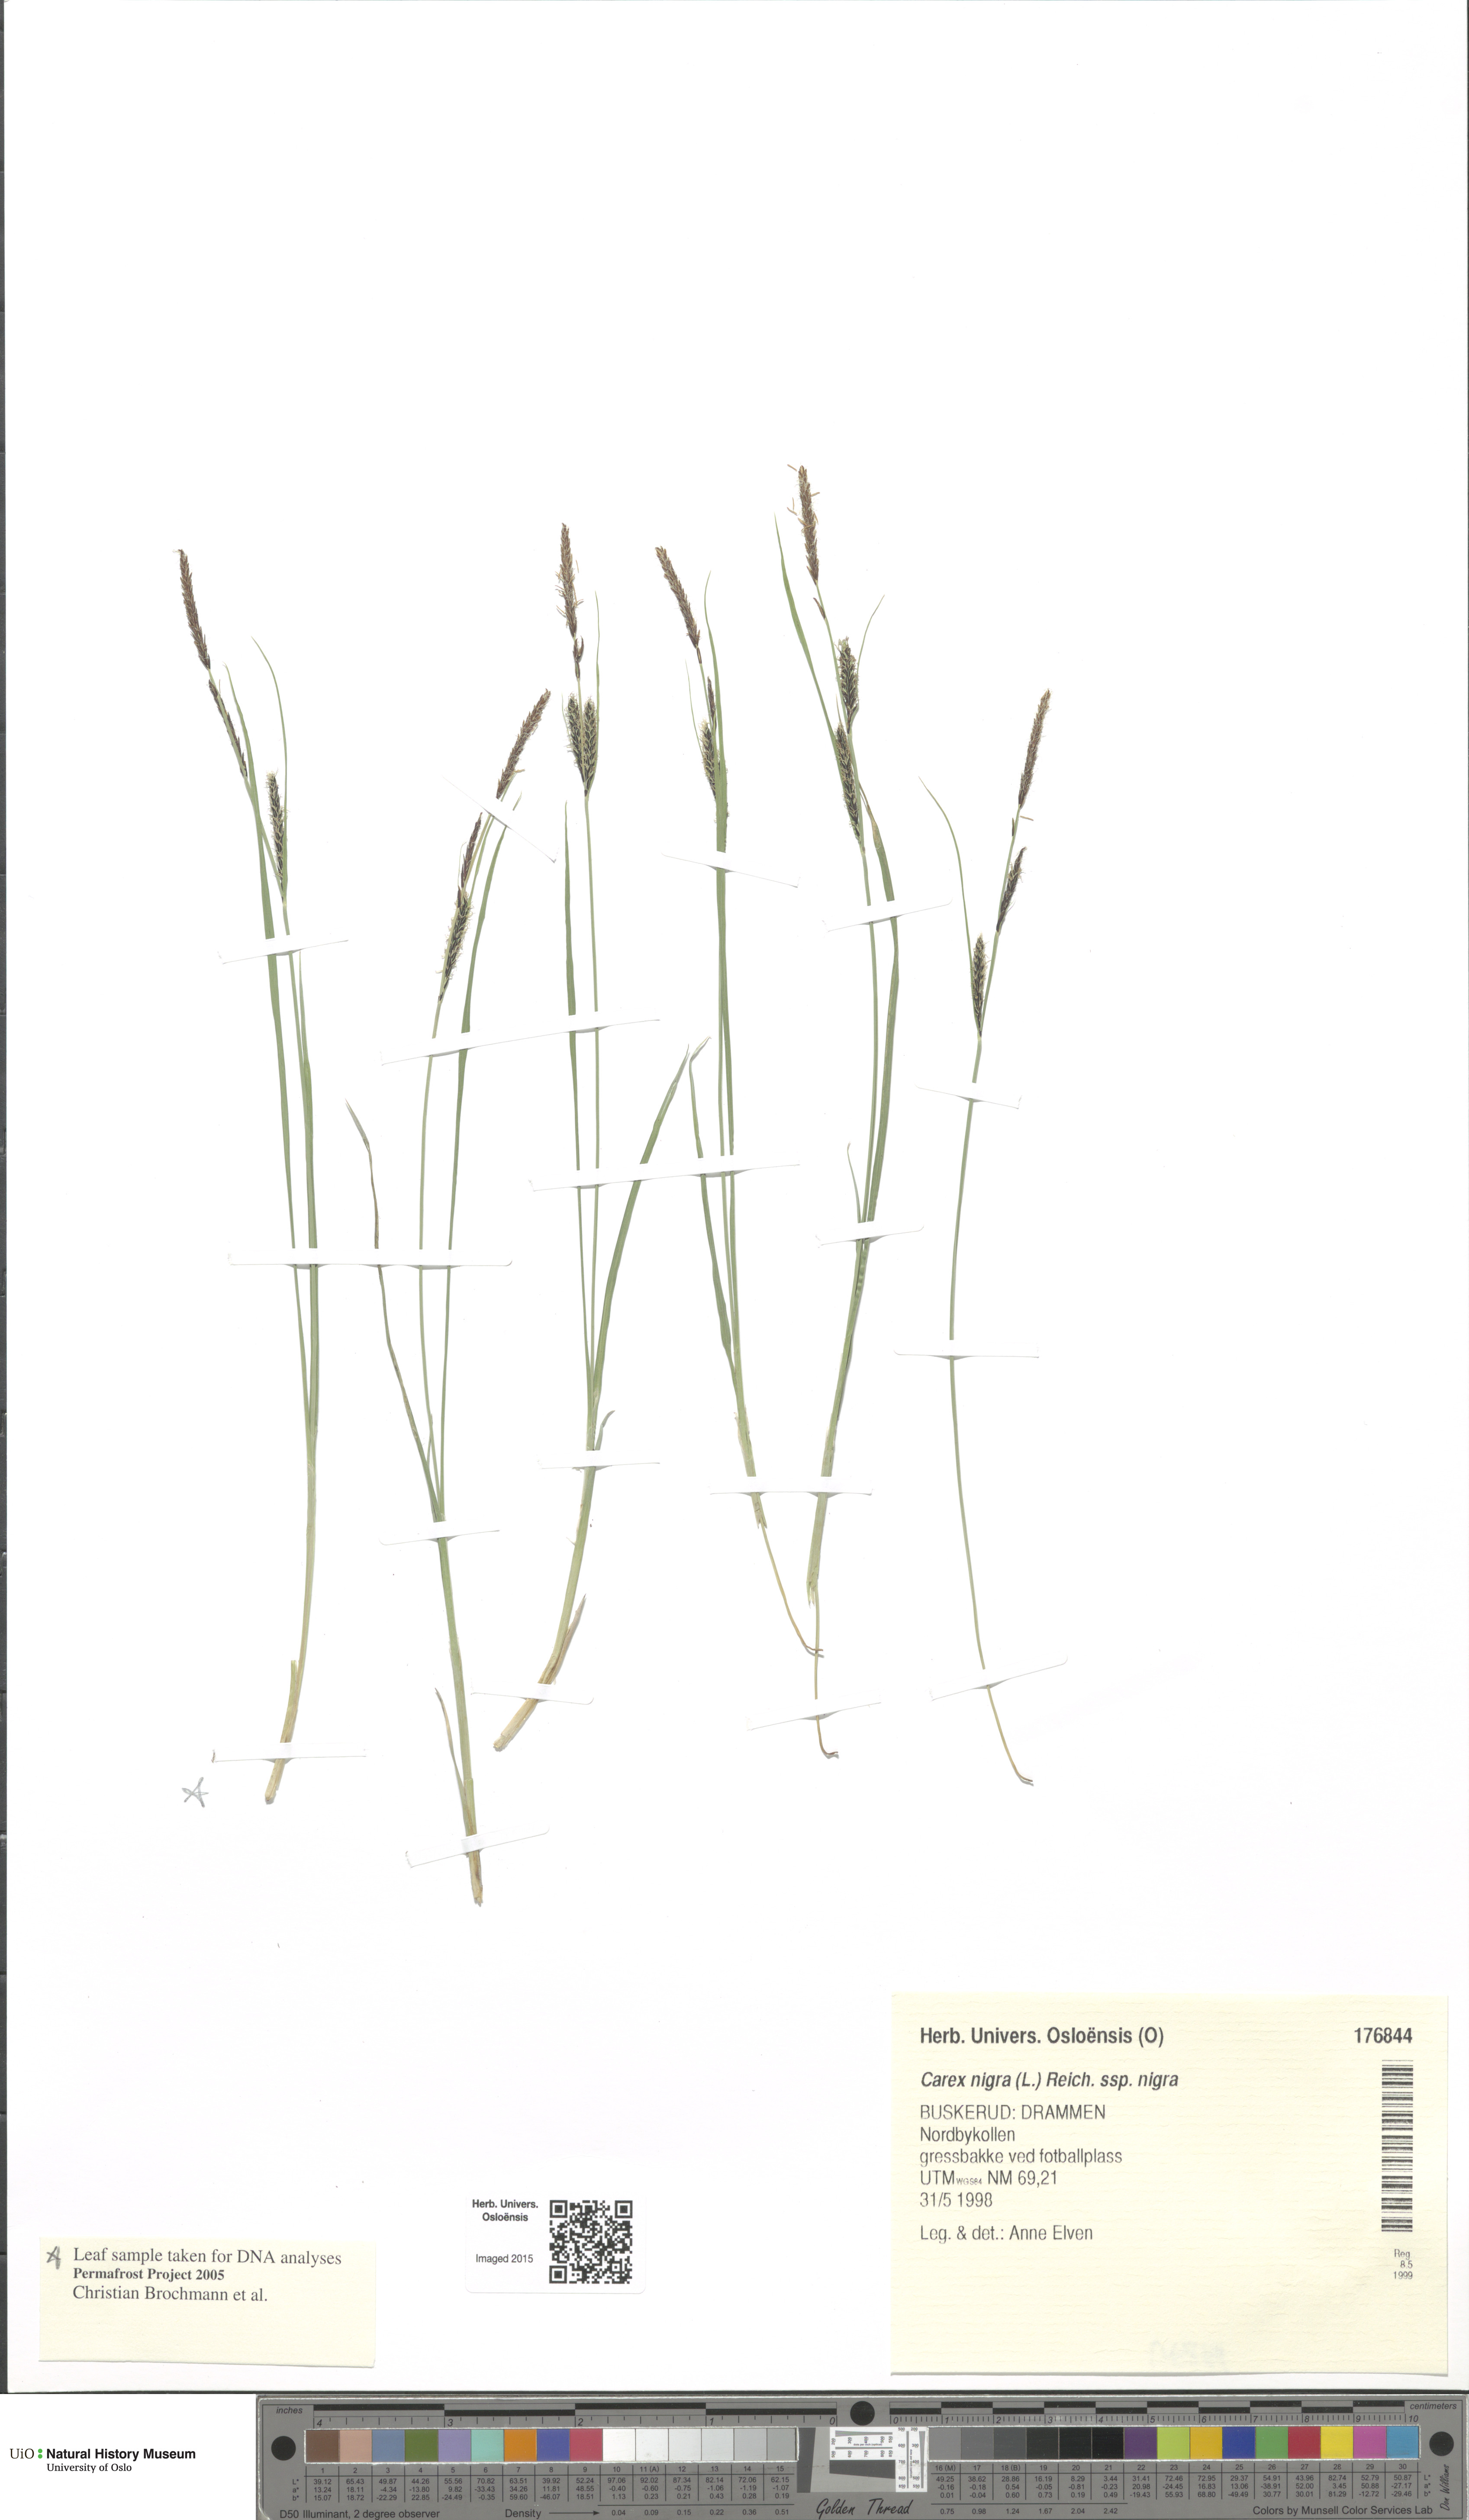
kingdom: Plantae
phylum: Tracheophyta
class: Liliopsida
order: Poales
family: Cyperaceae
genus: Carex
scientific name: Carex nigra
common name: Common sedge
